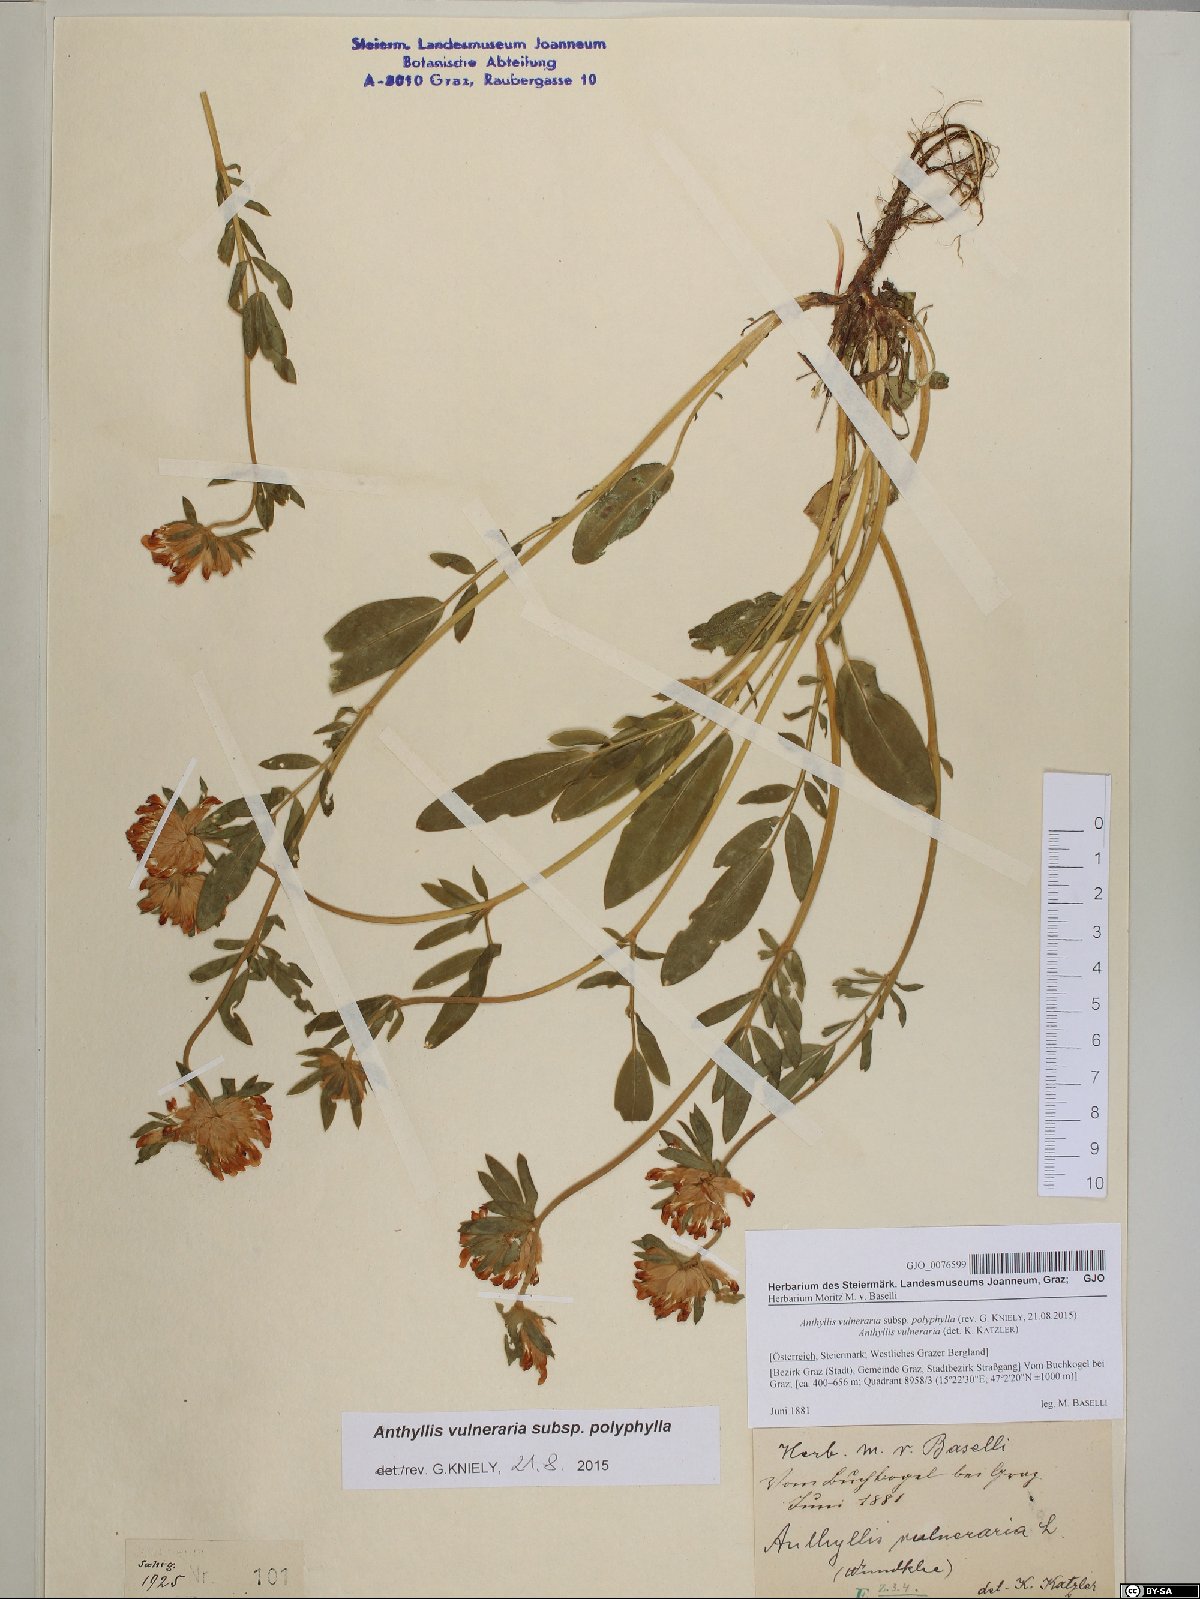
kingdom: Plantae
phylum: Tracheophyta
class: Magnoliopsida
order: Fabales
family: Fabaceae
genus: Anthyllis
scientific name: Anthyllis vulneraria
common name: Kidney vetch
